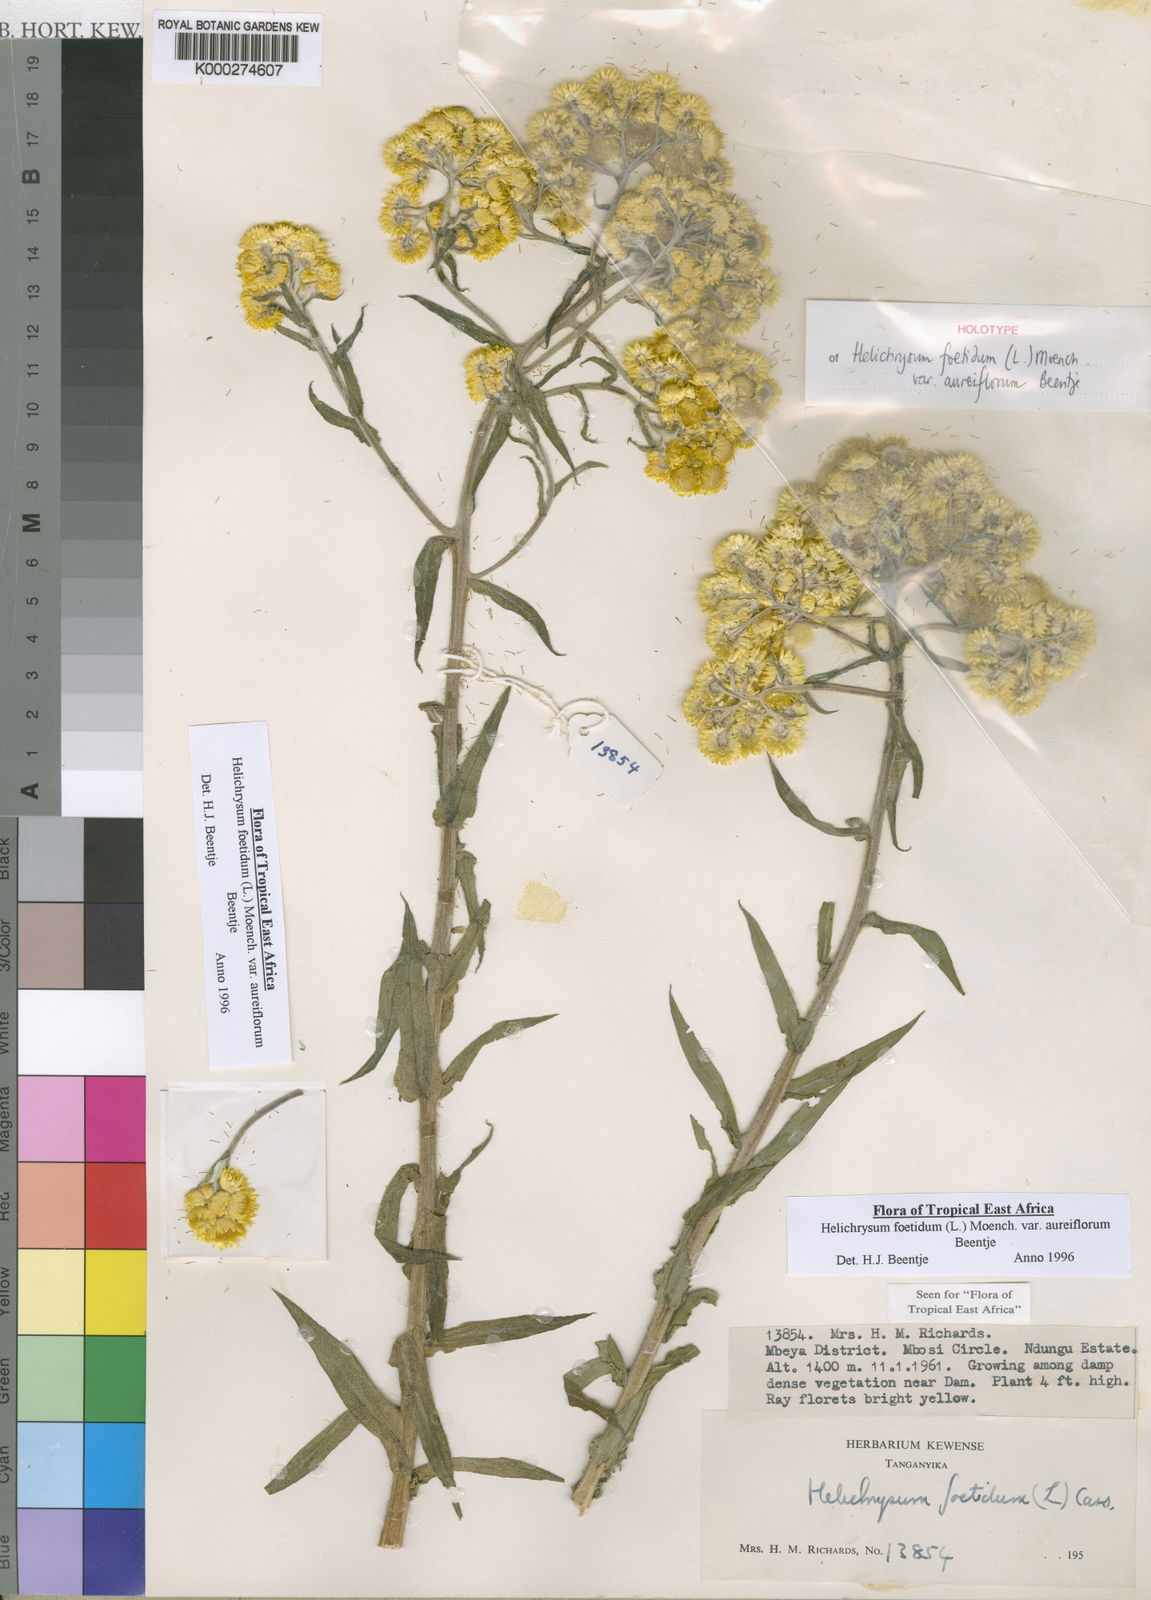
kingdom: Plantae
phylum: Tracheophyta
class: Magnoliopsida
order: Asterales
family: Asteraceae
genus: Helichrysum
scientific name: Helichrysum foetidum
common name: Stinking everlasting
